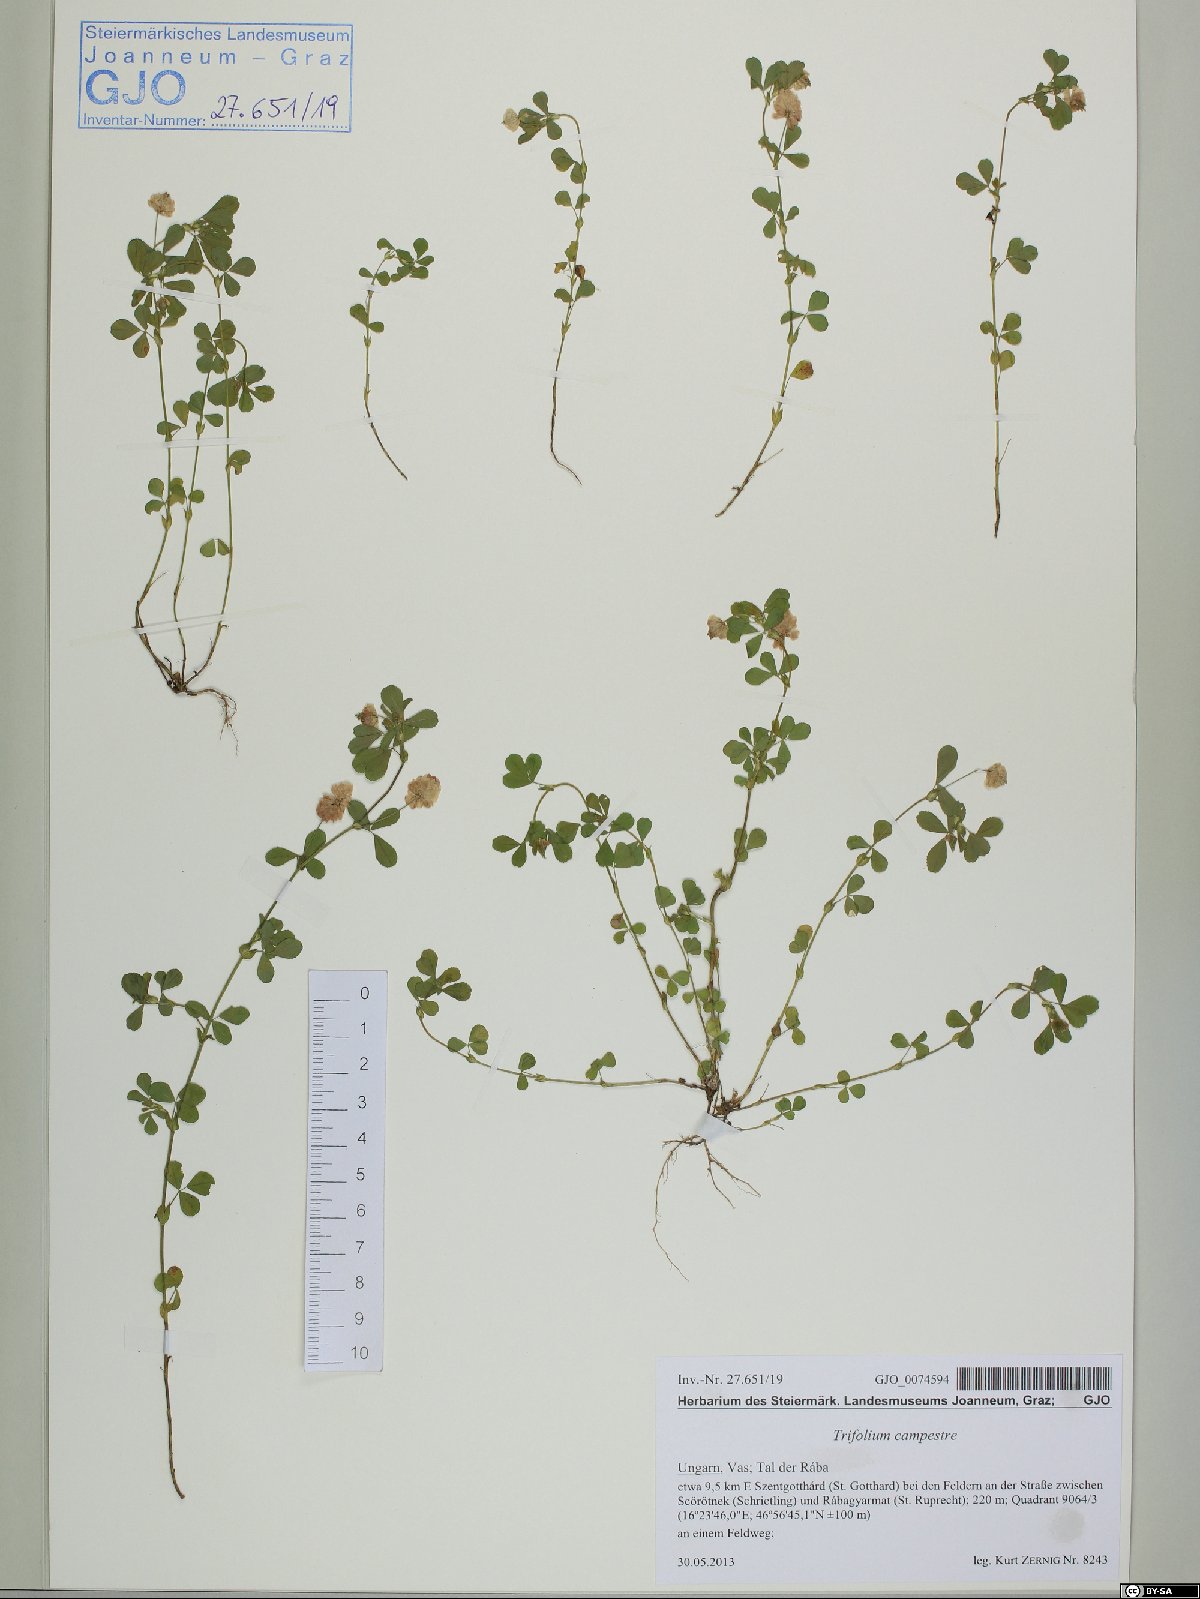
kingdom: Plantae
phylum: Tracheophyta
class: Magnoliopsida
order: Fabales
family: Fabaceae
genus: Trifolium
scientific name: Trifolium campestre
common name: Field clover
